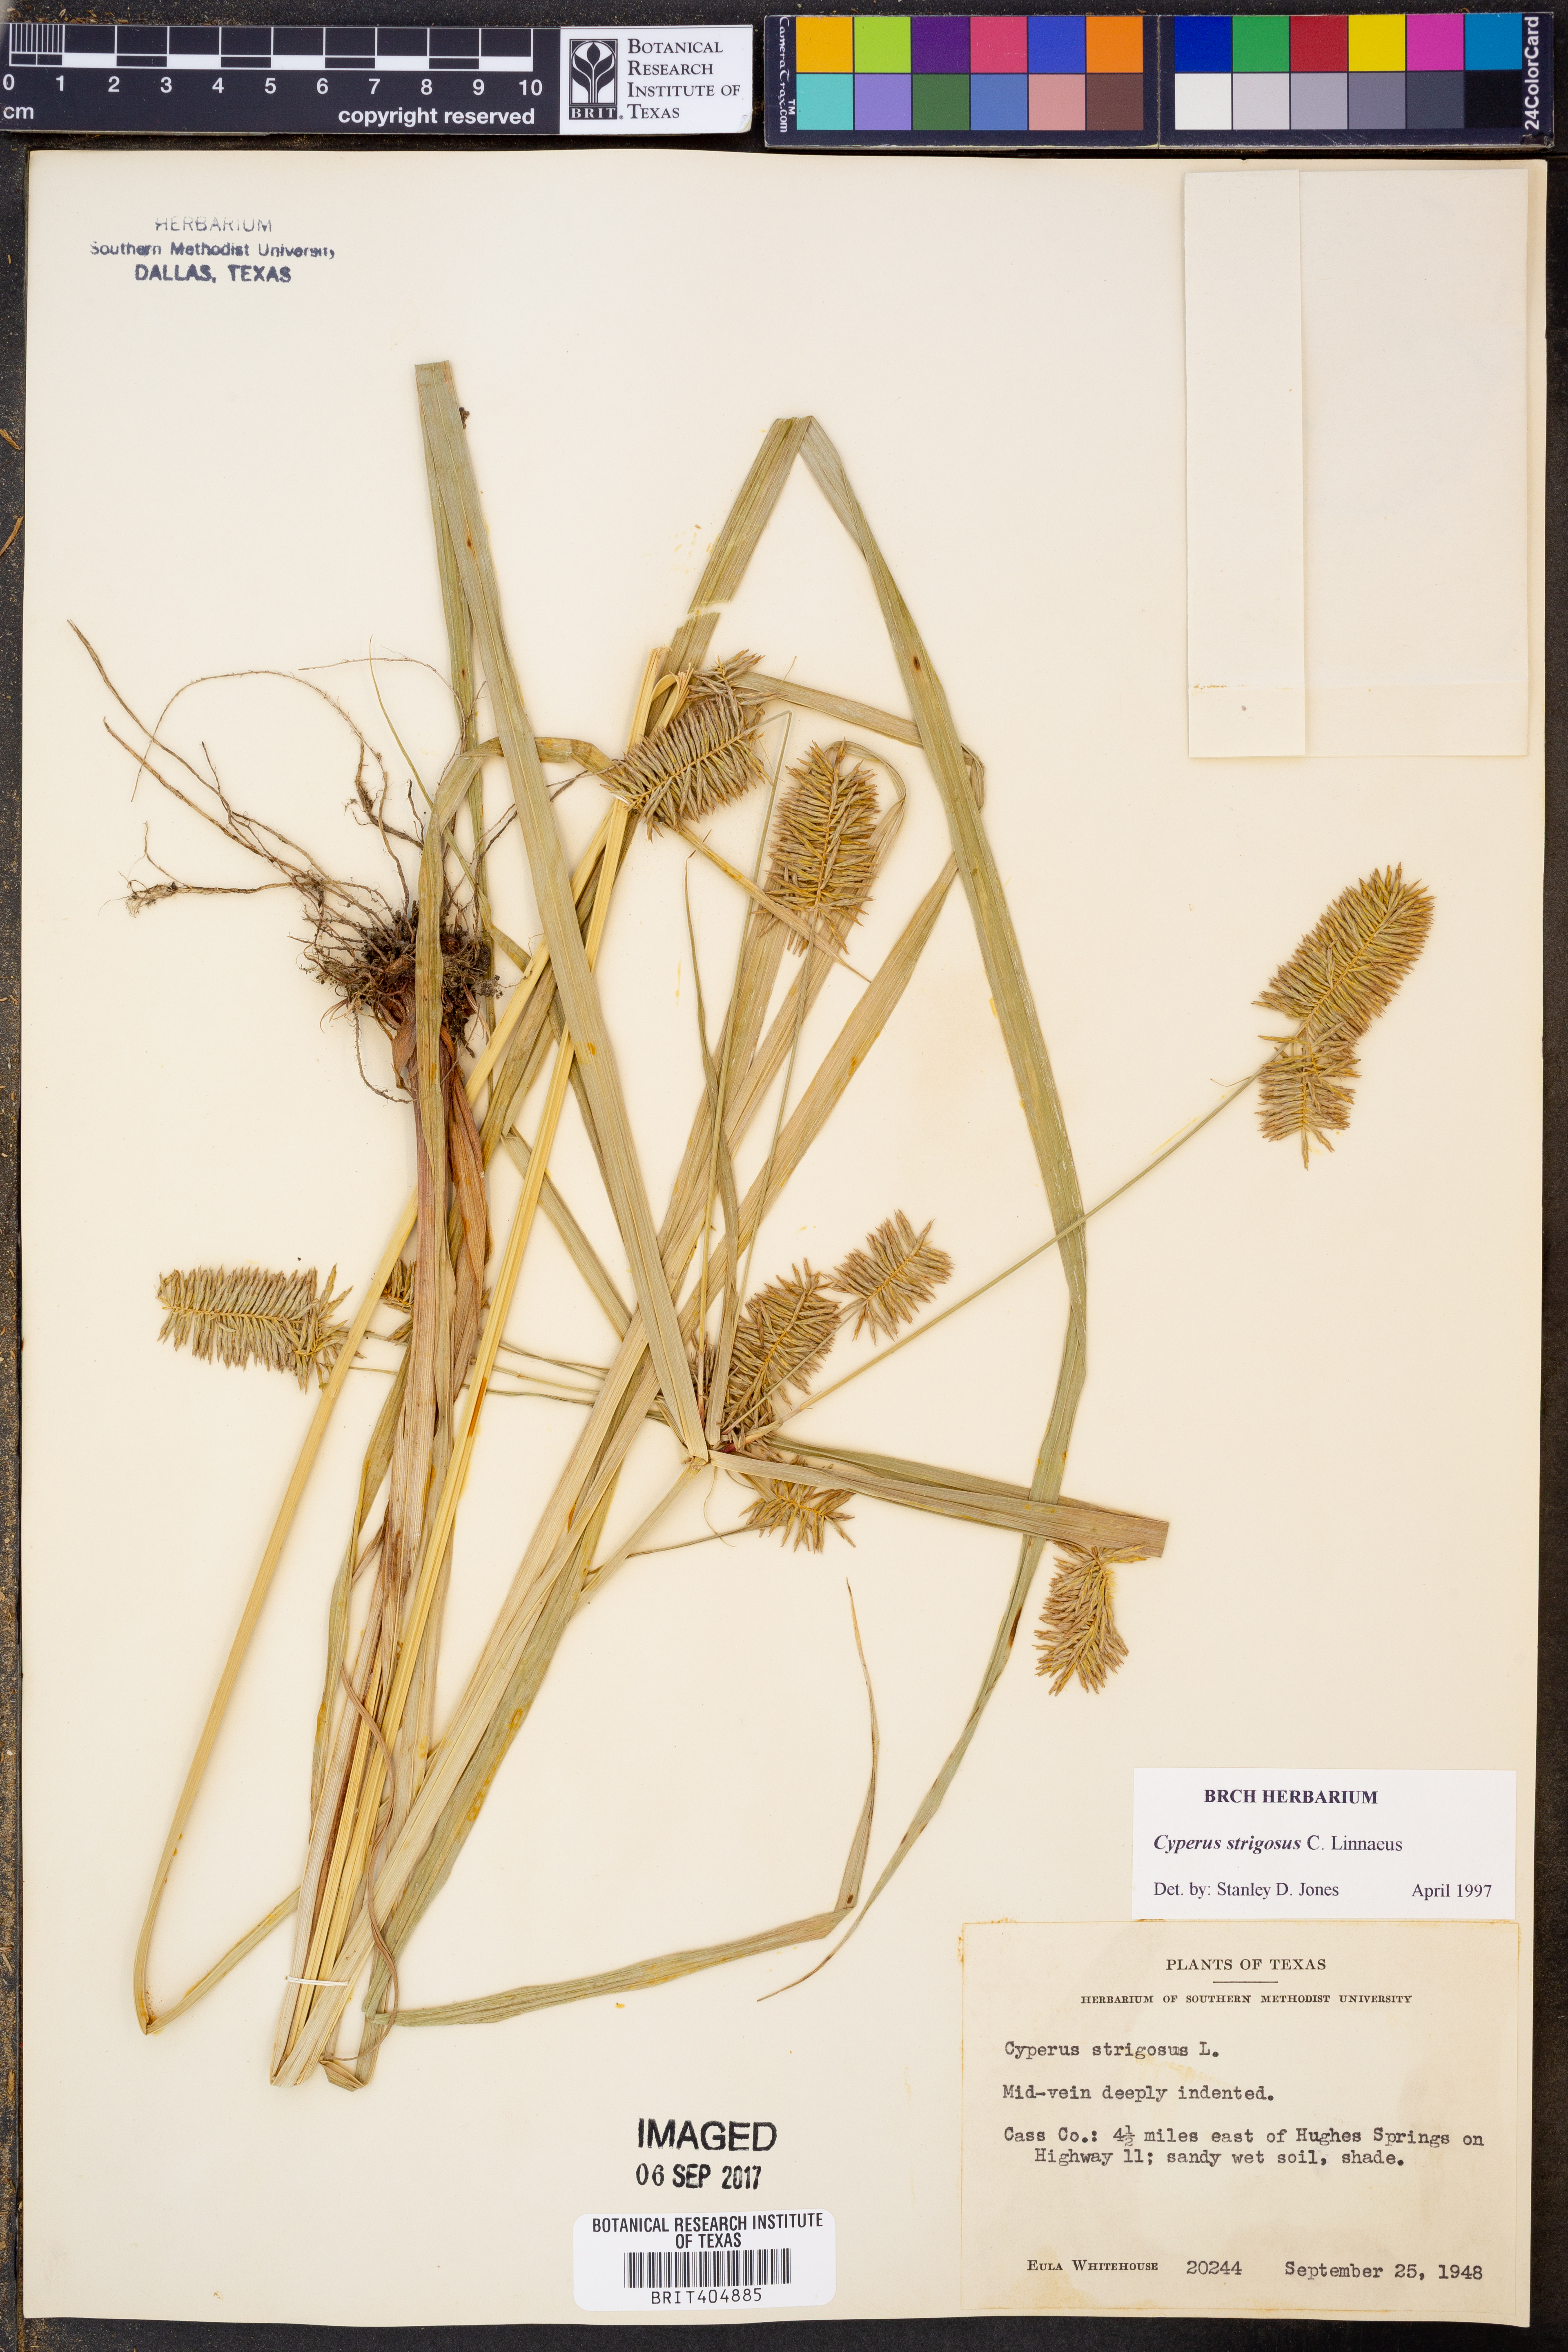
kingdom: Plantae
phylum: Tracheophyta
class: Liliopsida
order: Poales
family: Cyperaceae
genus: Cyperus
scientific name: Cyperus strigosus
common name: False nutsedge
